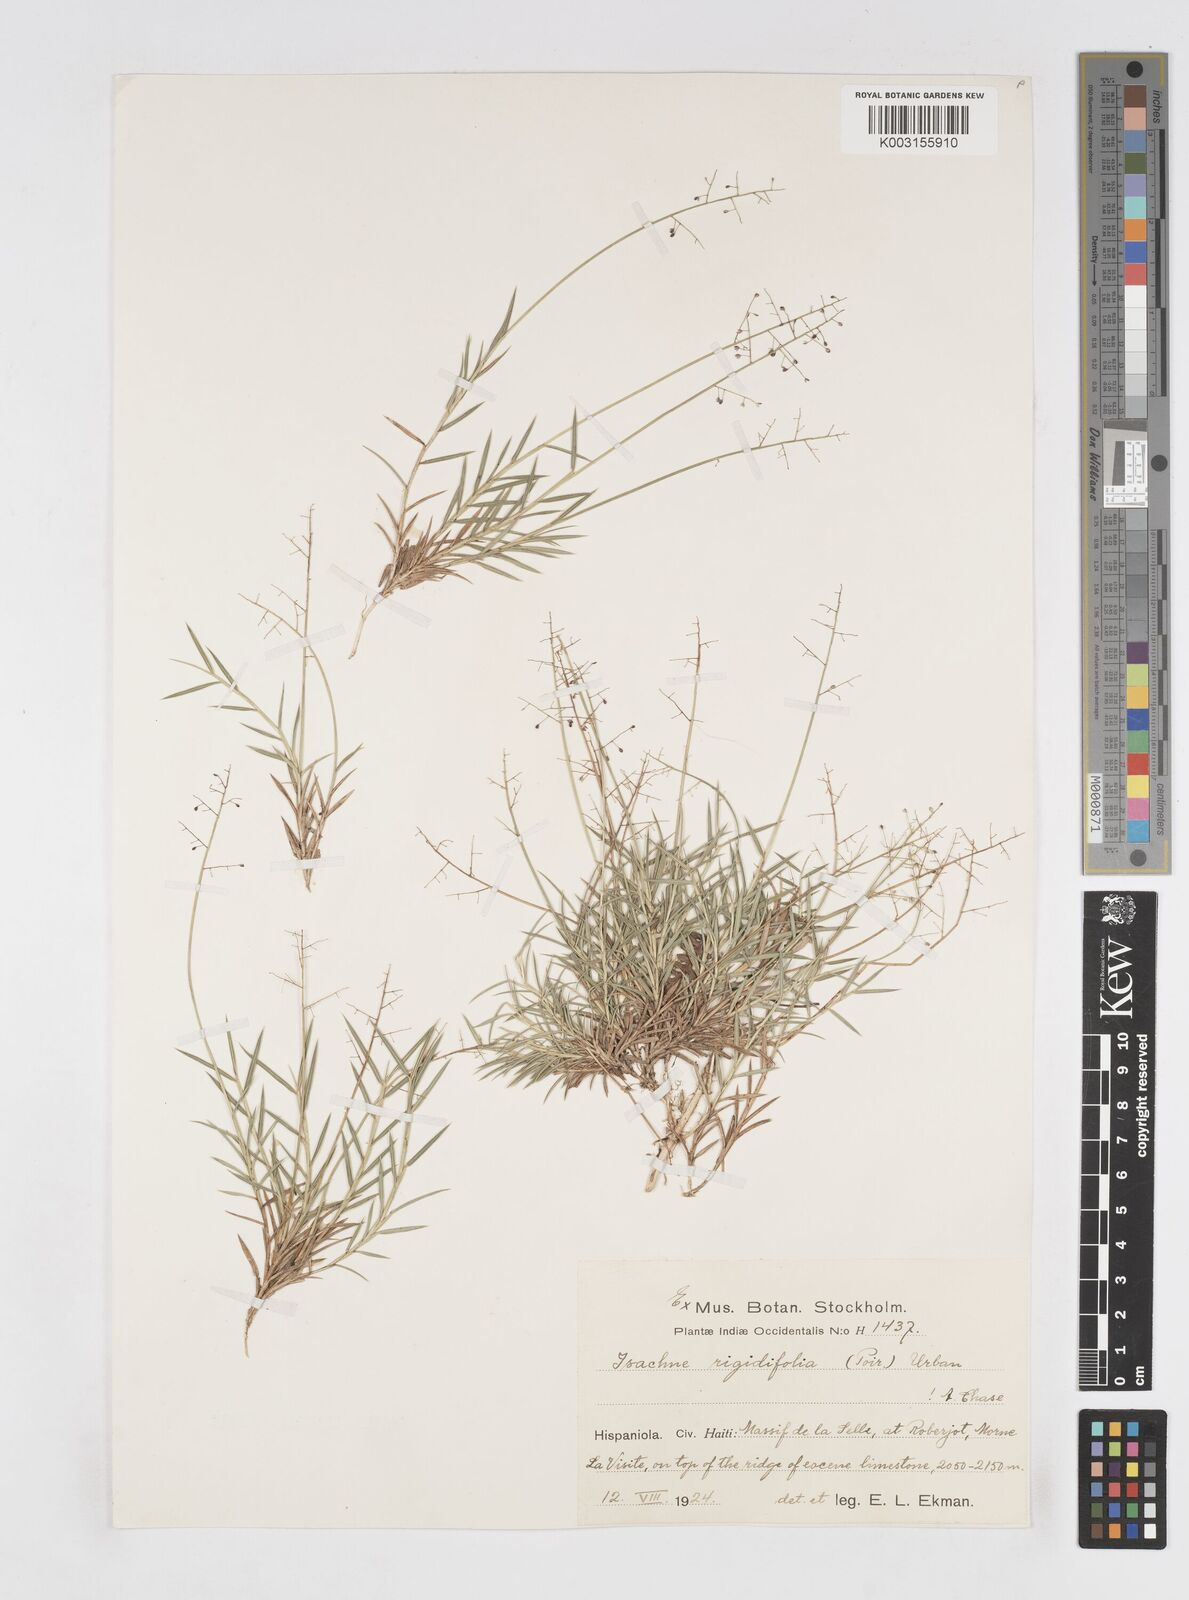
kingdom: Plantae
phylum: Tracheophyta
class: Liliopsida
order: Poales
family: Poaceae
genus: Isachne
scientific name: Isachne rigidifolia
